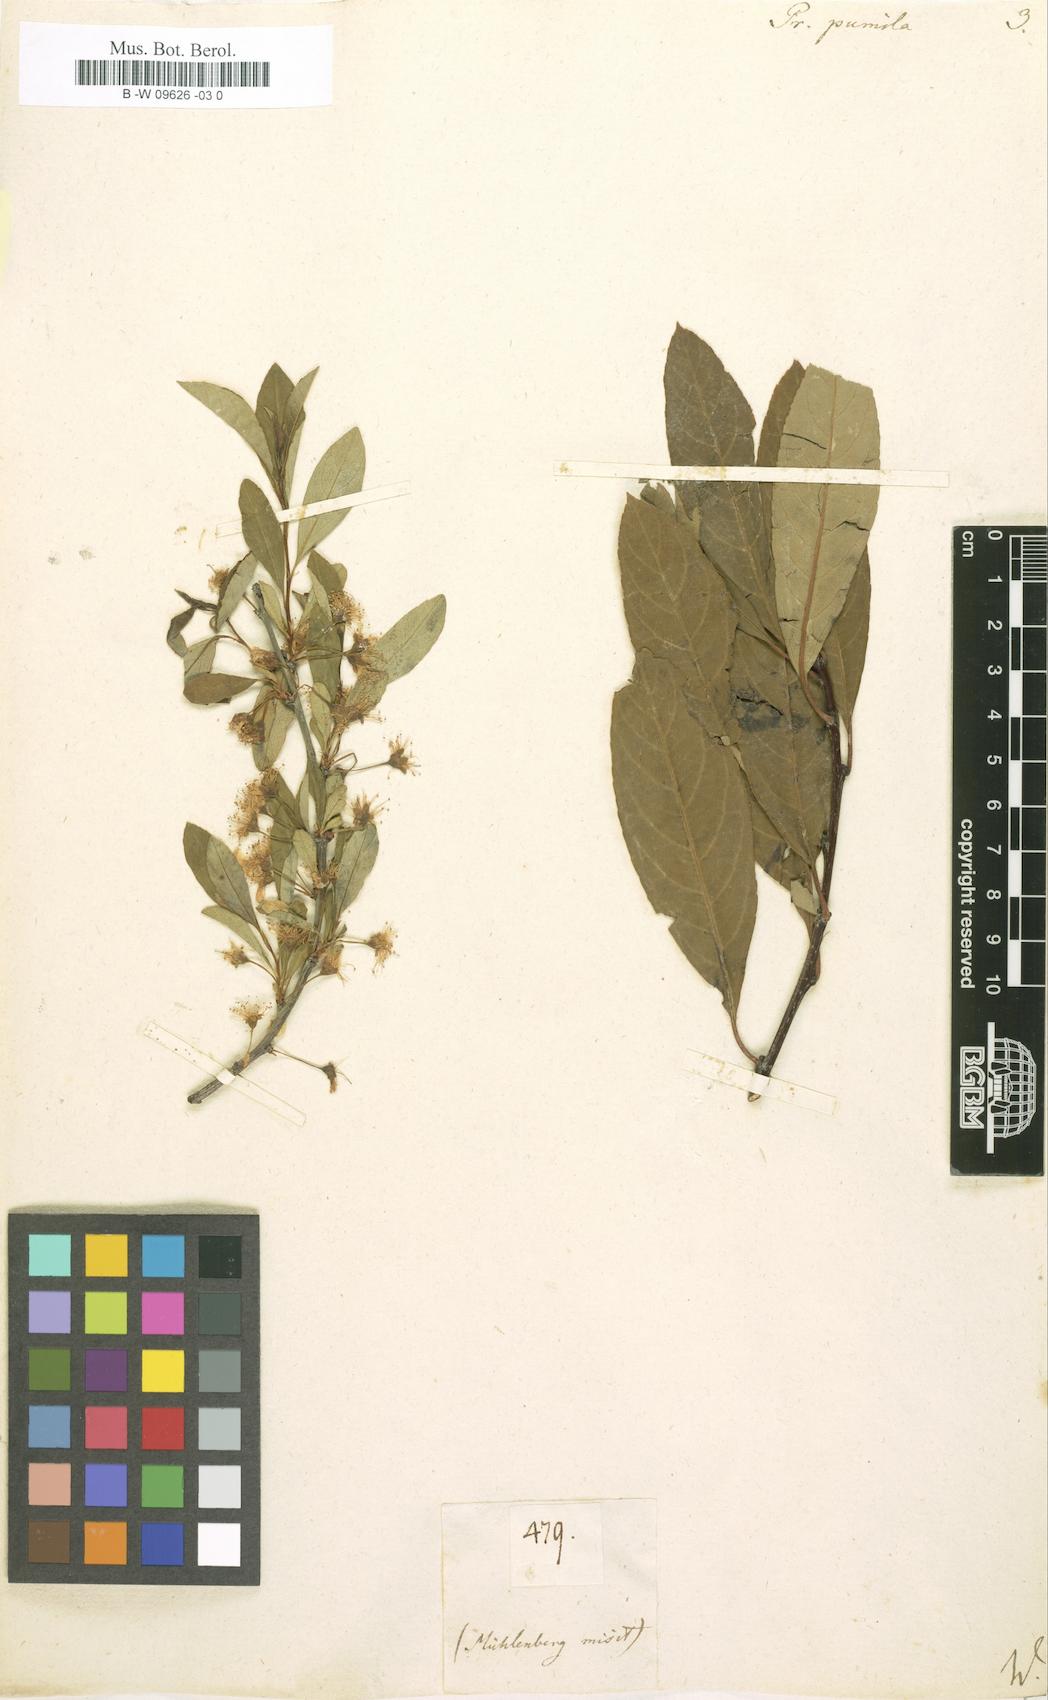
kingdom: Plantae
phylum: Tracheophyta
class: Magnoliopsida
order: Rosales
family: Rosaceae
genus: Prunus
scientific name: Prunus pumila
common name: Dwarf cherry
